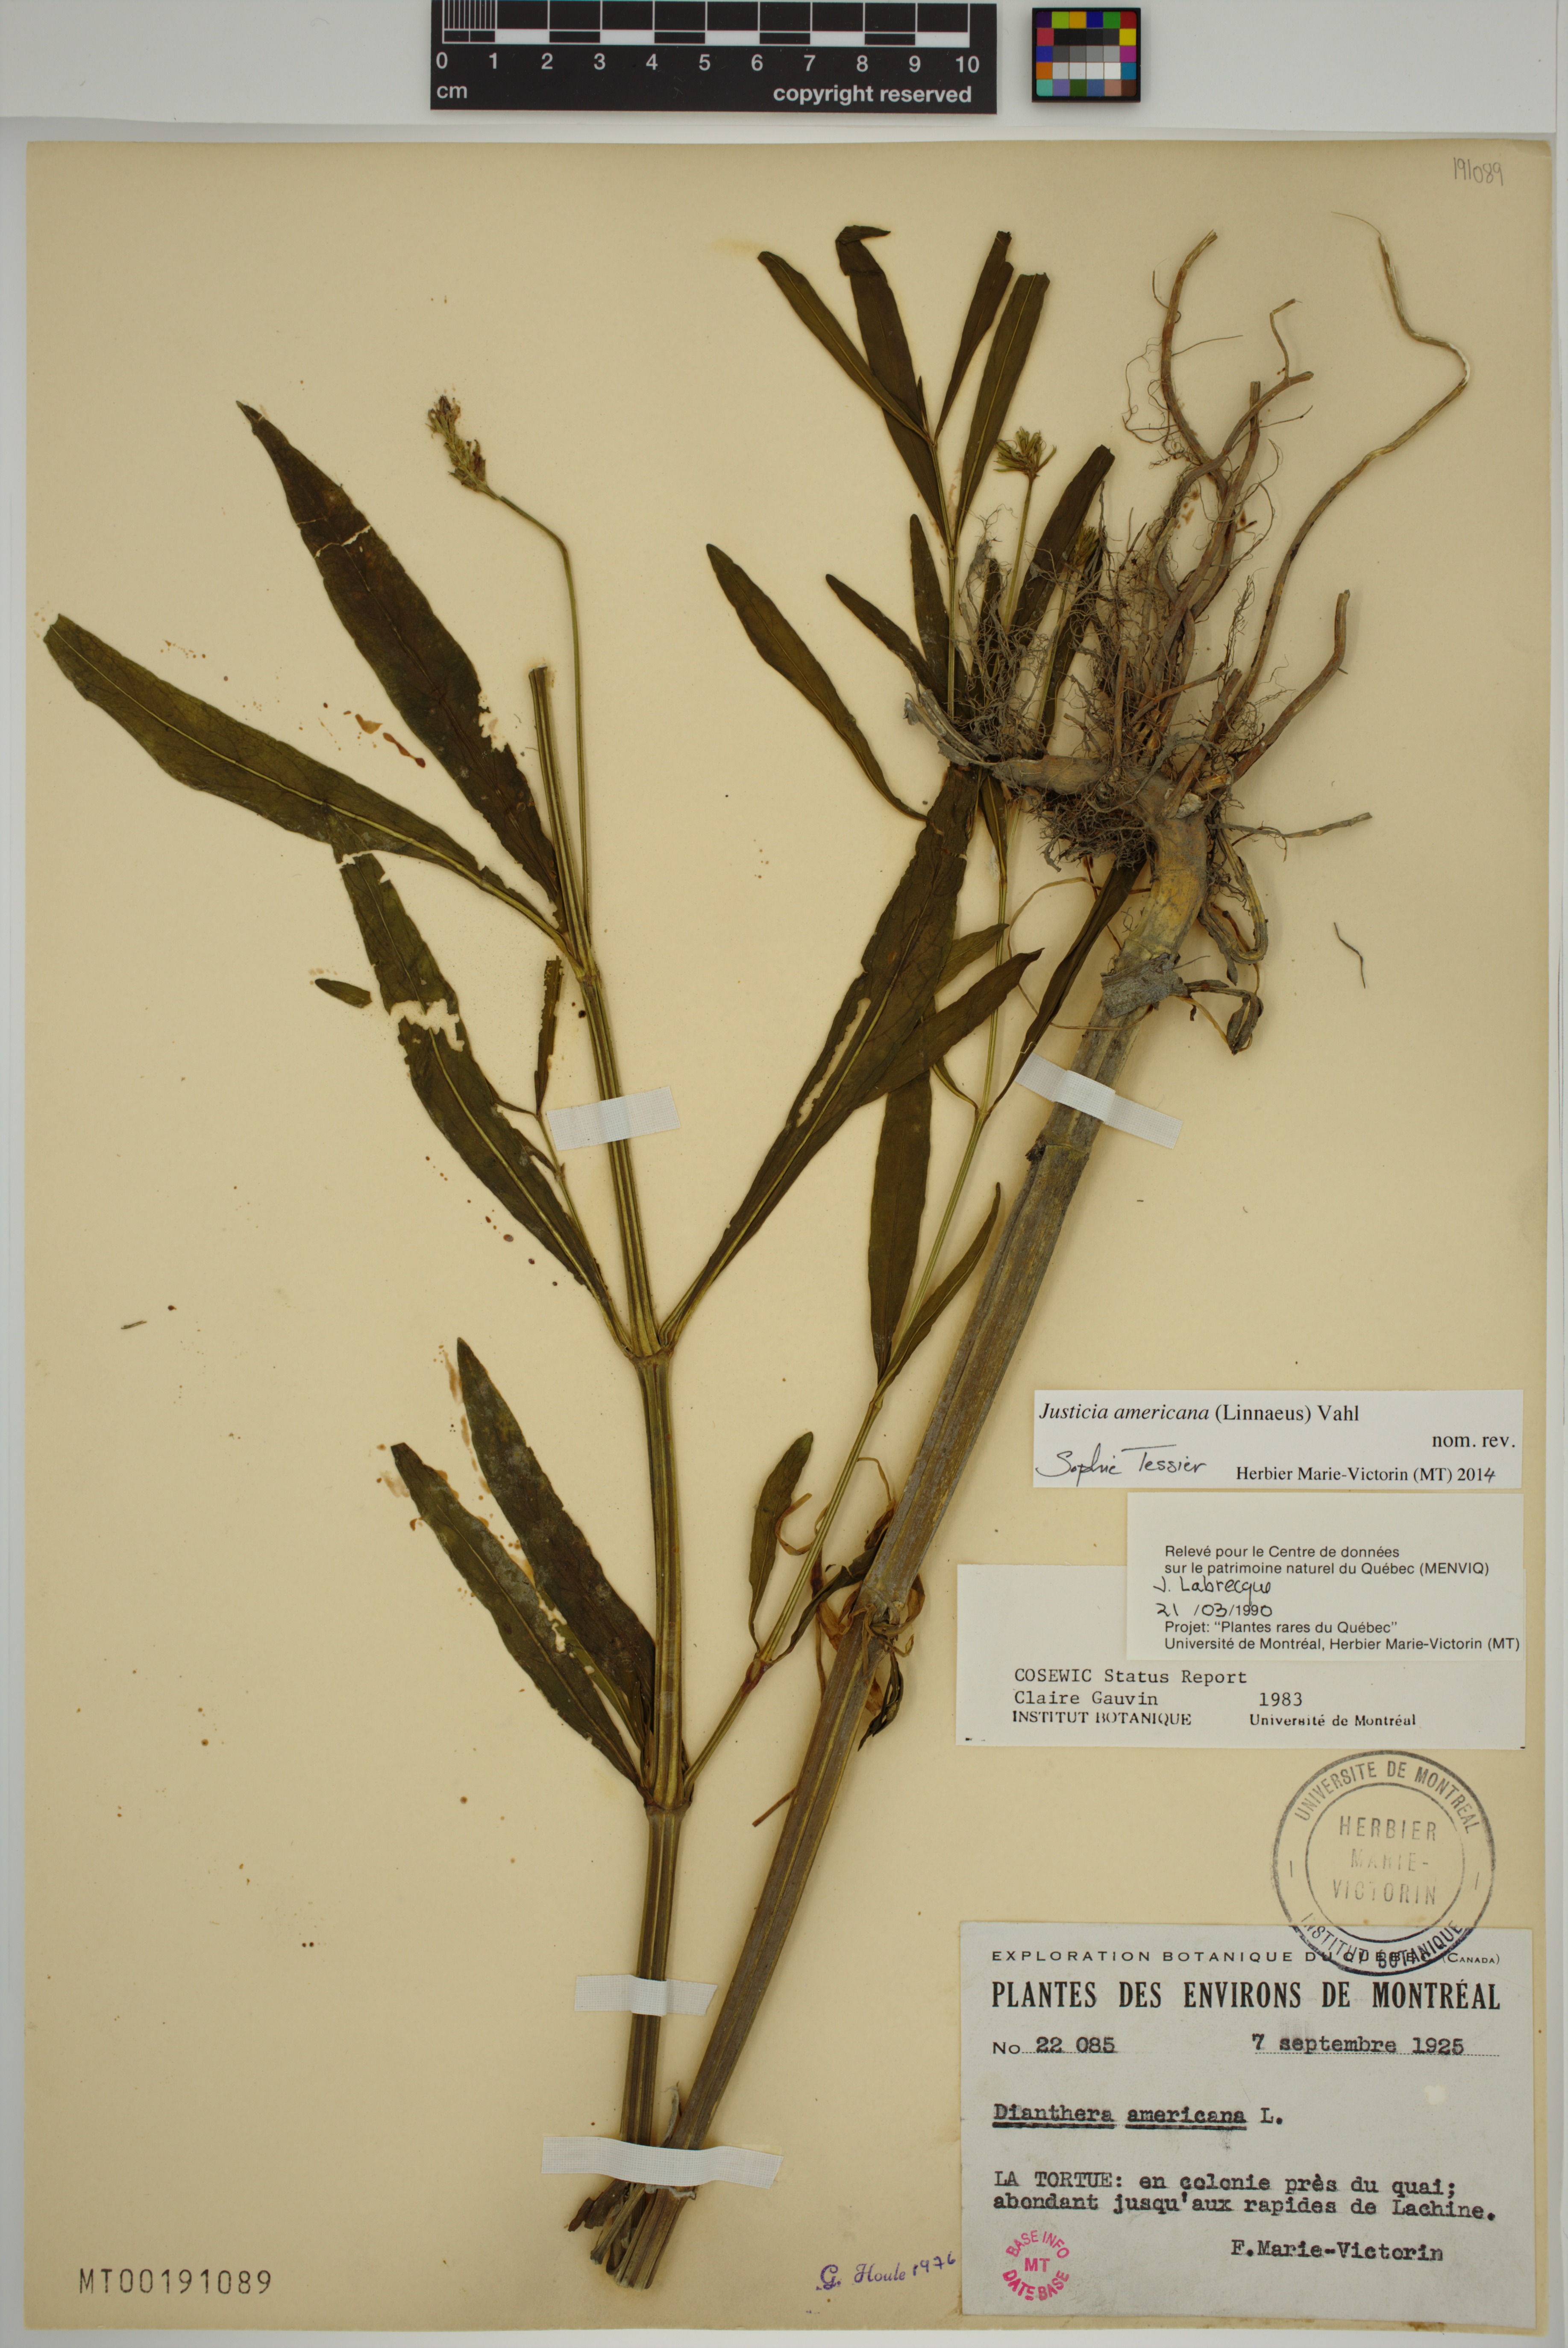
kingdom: Plantae
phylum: Tracheophyta
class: Magnoliopsida
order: Lamiales
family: Acanthaceae
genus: Dianthera
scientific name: Dianthera americana
